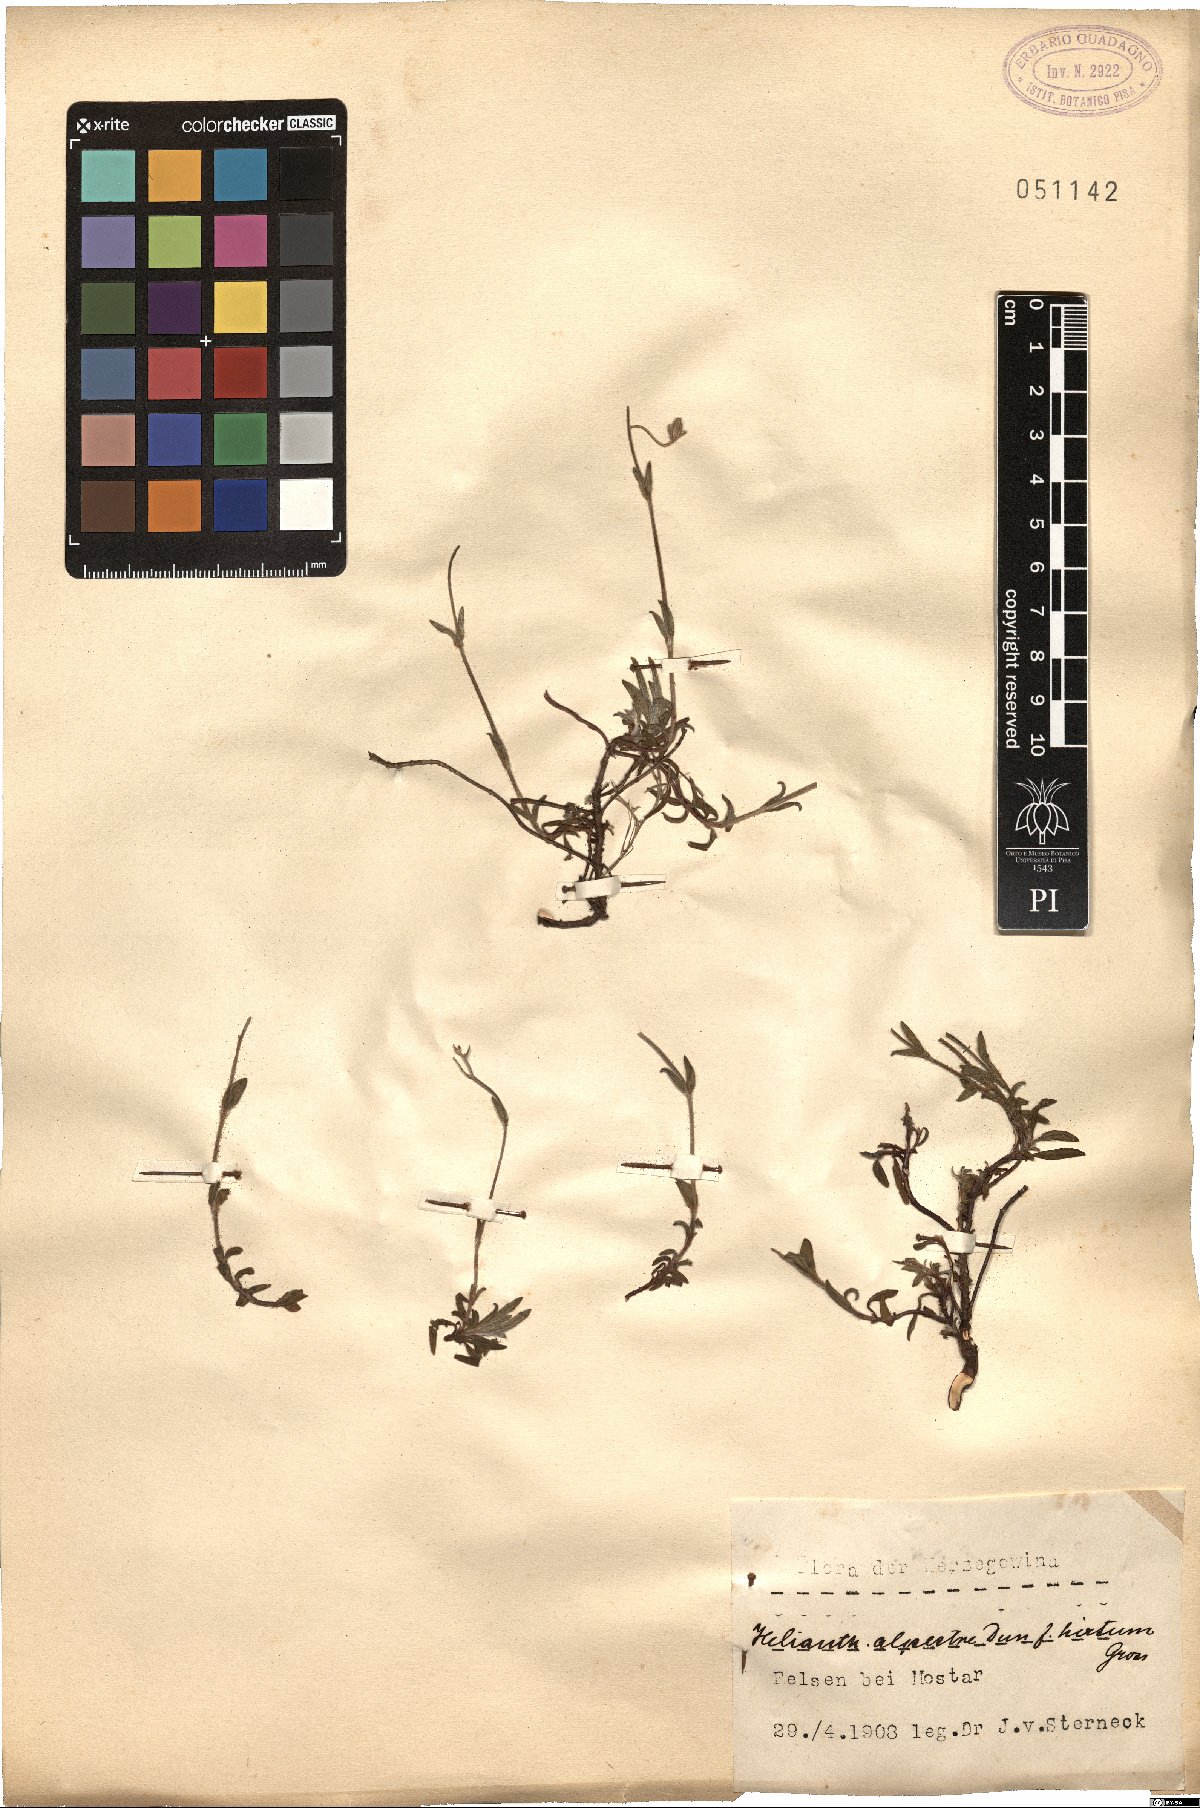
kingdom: Plantae
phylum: Tracheophyta
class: Magnoliopsida
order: Malvales
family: Cistaceae
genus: Helianthemum
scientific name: Helianthemum alpestre
